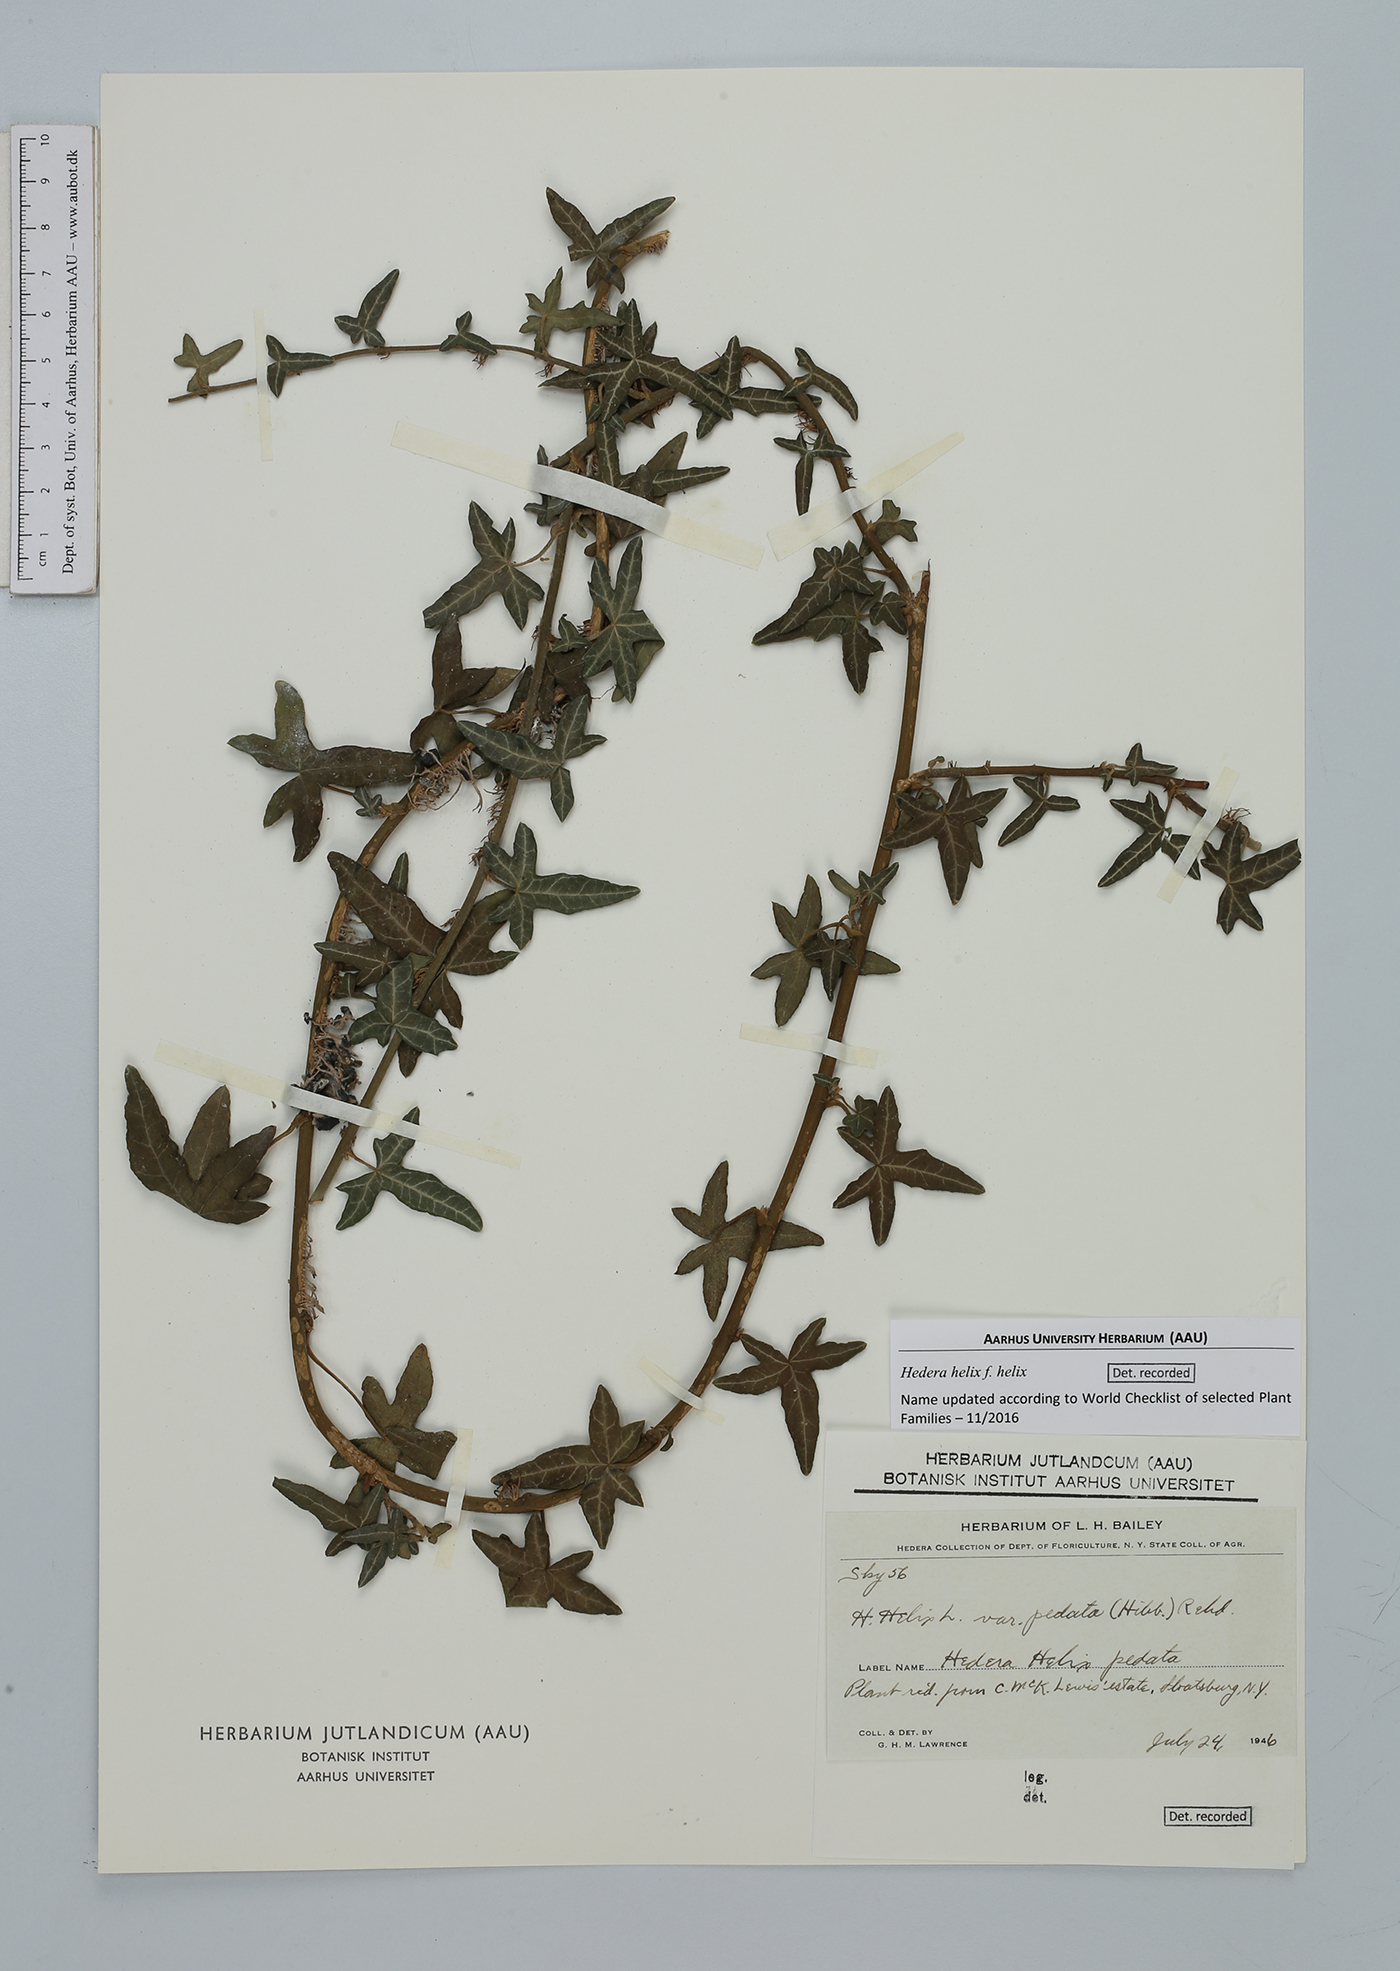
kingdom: Plantae
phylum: Tracheophyta
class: Magnoliopsida
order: Apiales
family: Araliaceae
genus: Hedera
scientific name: Hedera helix
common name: Ivy
